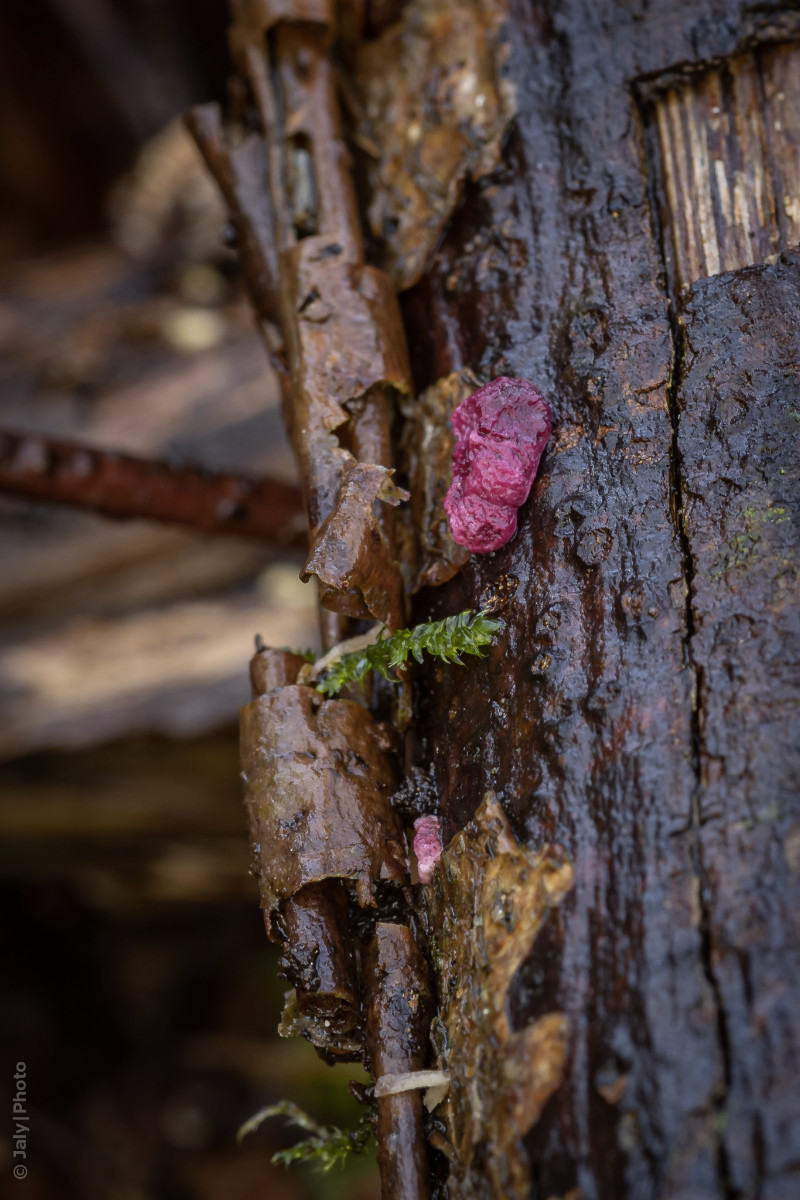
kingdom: Fungi
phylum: Ascomycota
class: Sordariomycetes
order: Hypocreales
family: Hypocreaceae
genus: Trichoderma
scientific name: Trichoderma europaeum
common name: rosabrun kødkerne
